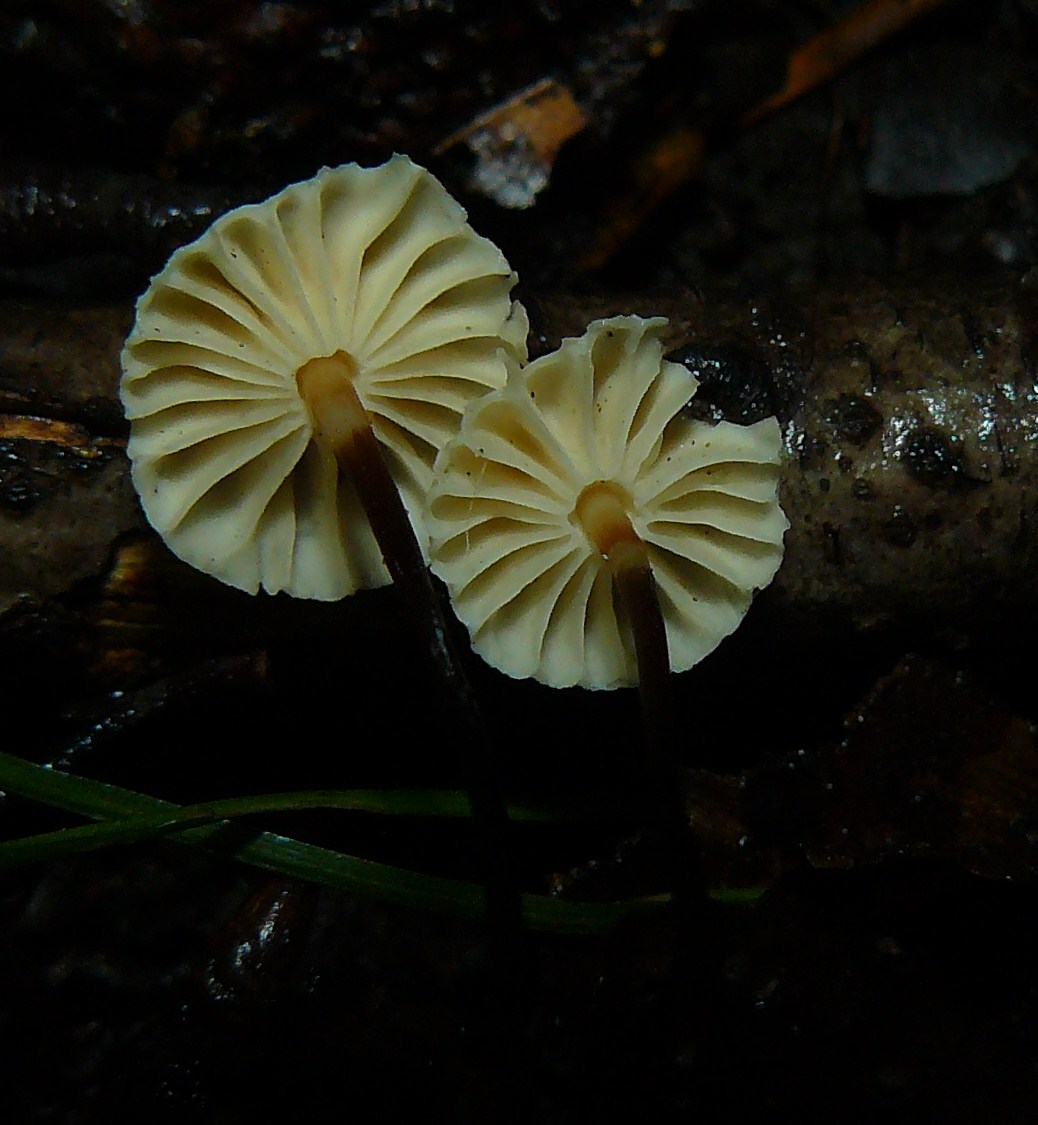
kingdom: Fungi
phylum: Basidiomycota
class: Agaricomycetes
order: Agaricales
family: Marasmiaceae
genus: Marasmius
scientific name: Marasmius rotula
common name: hjul-bruskhat
